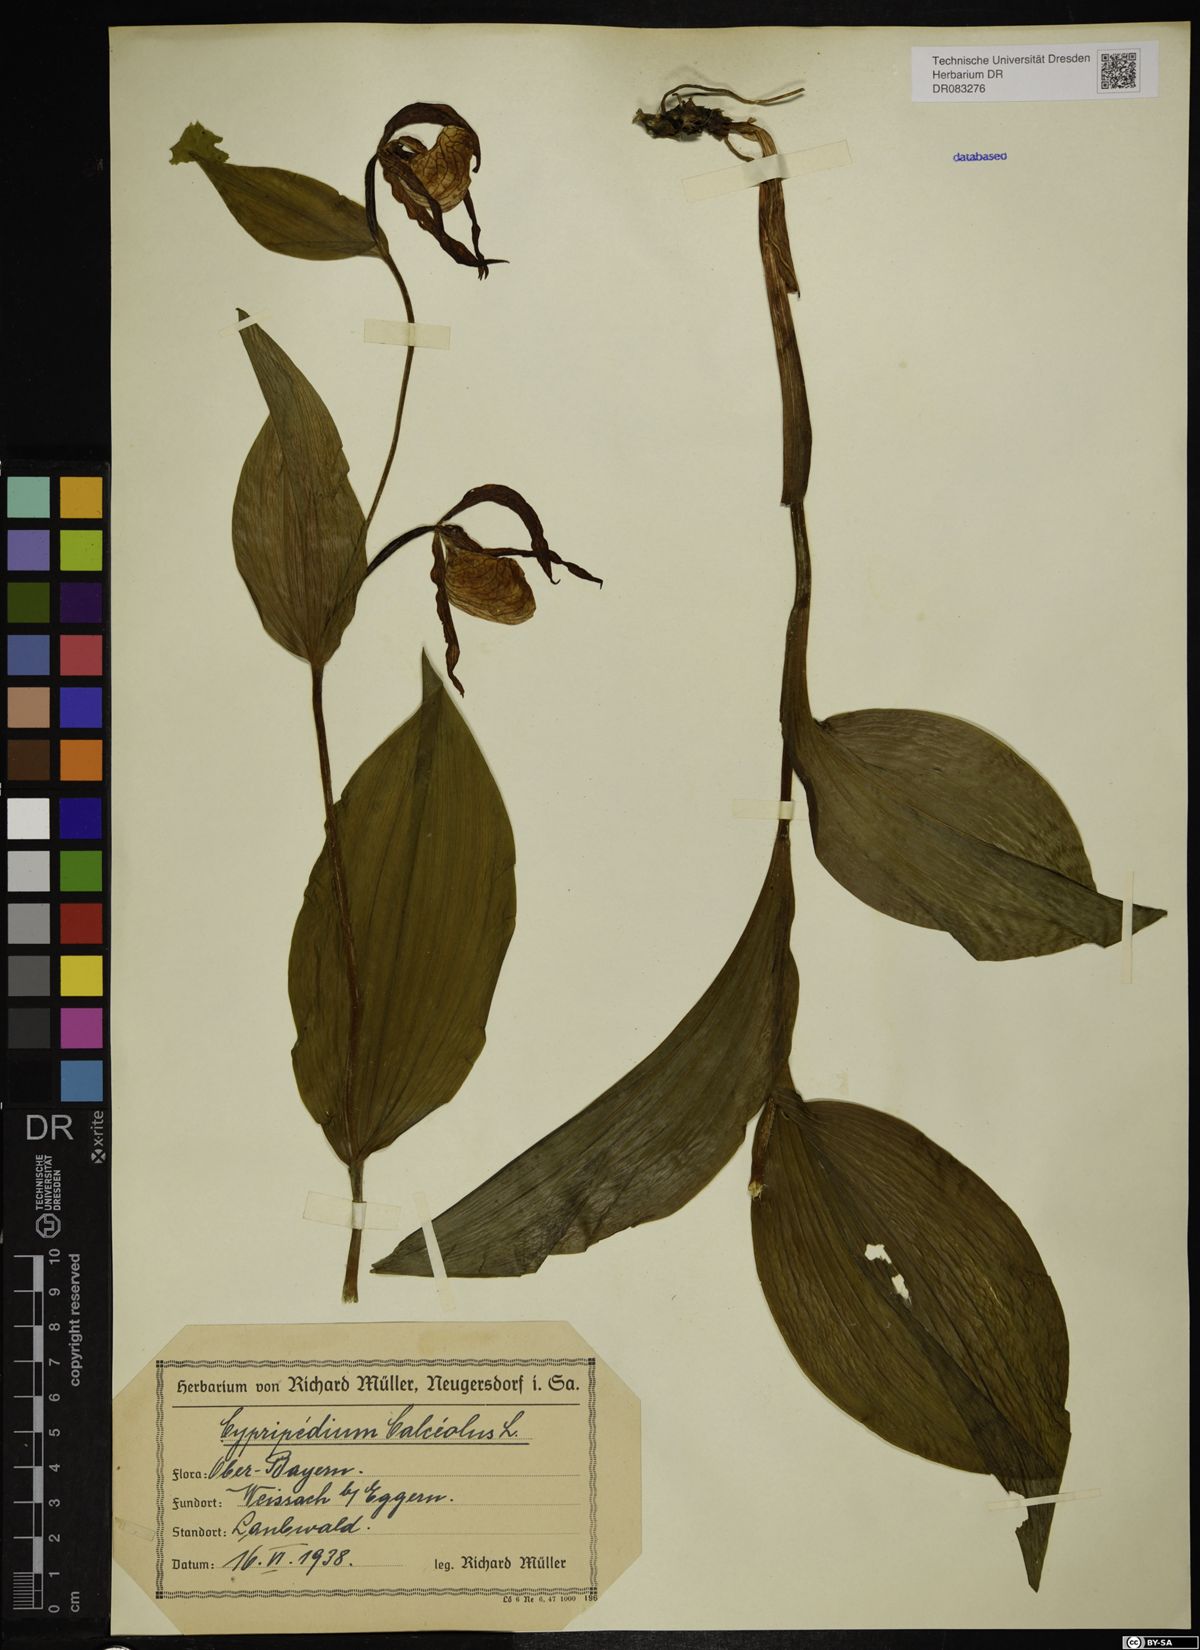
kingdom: Plantae
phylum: Tracheophyta
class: Liliopsida
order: Asparagales
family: Orchidaceae
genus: Cypripedium
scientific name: Cypripedium calceolus
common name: Lady's-slipper
